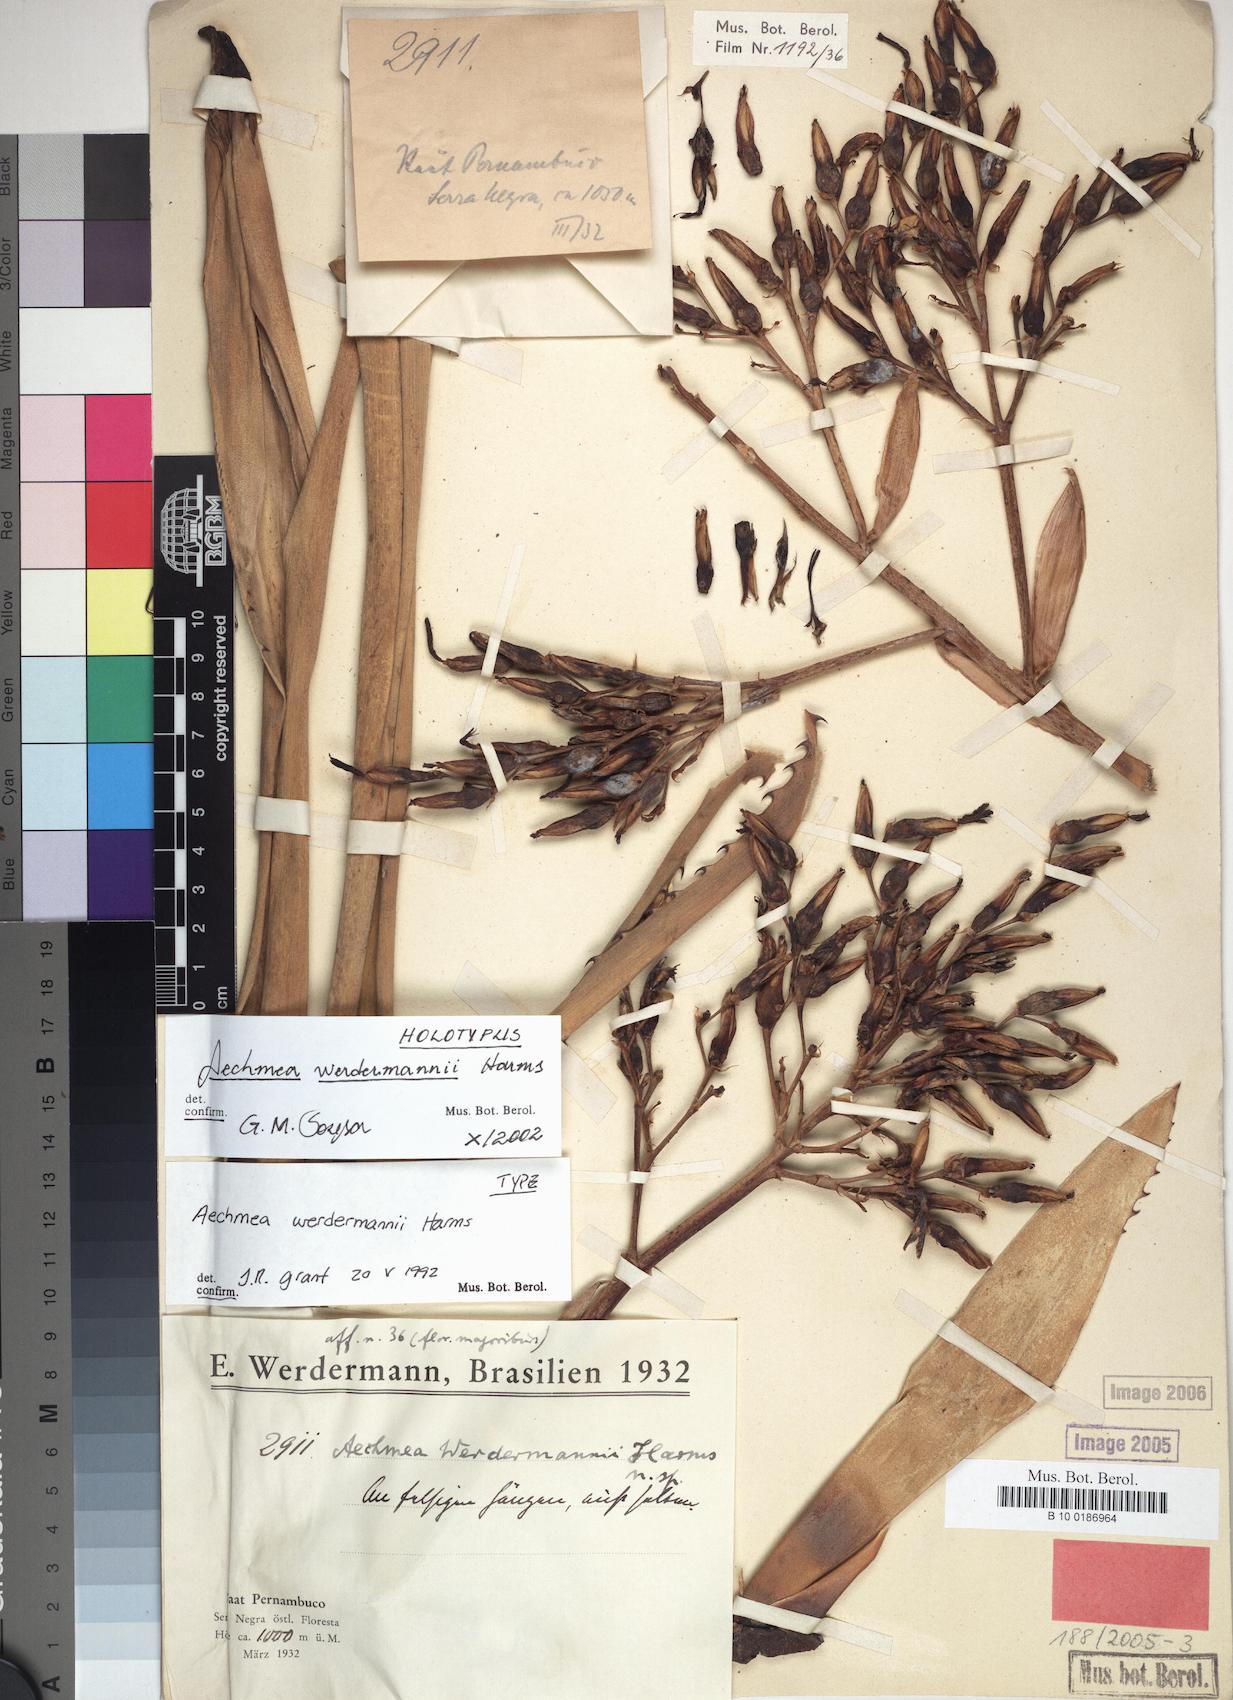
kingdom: Plantae
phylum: Tracheophyta
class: Liliopsida
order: Poales
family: Bromeliaceae
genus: Aechmea
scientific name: Aechmea werdermannii
